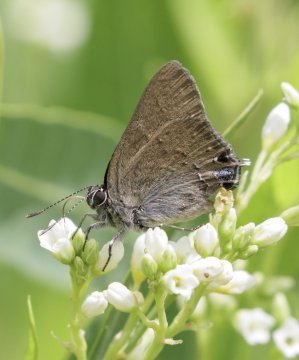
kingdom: Animalia
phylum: Arthropoda
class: Insecta
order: Lepidoptera
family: Lycaenidae
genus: Strymon
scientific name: Strymon saepium
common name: Hedgerow Hairstreak
